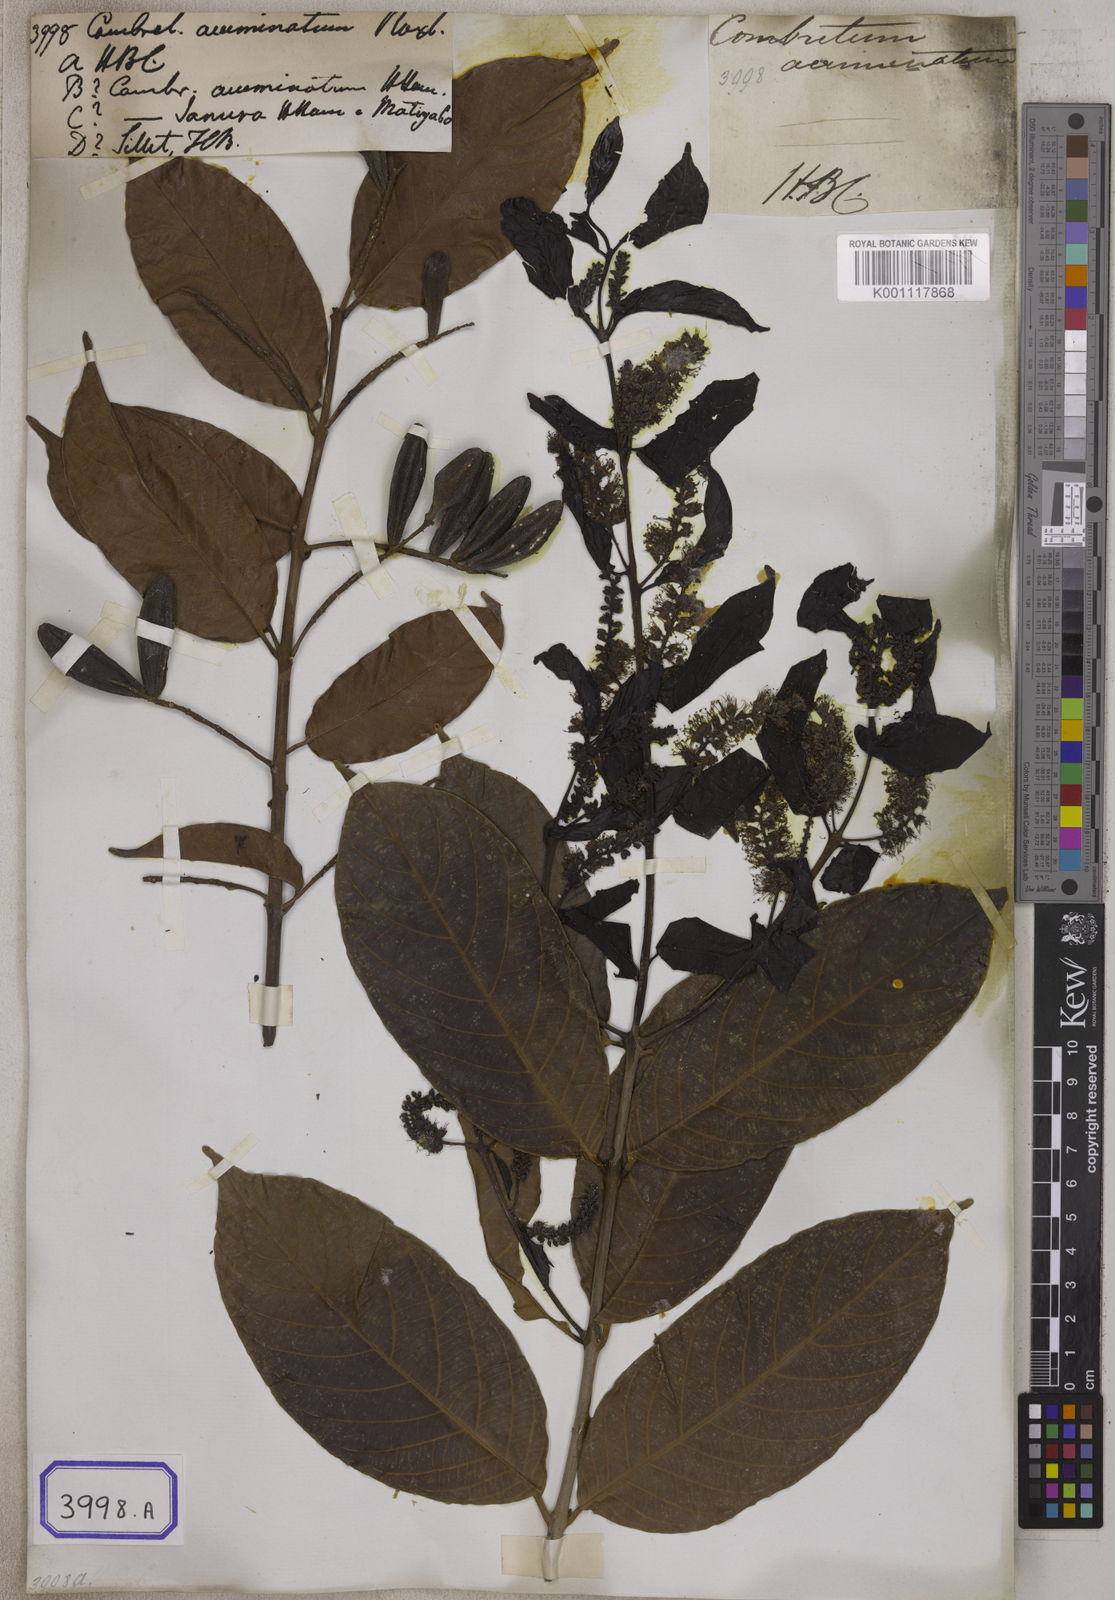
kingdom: Plantae
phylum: Tracheophyta
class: Magnoliopsida
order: Myrtales
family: Combretaceae
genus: Combretum
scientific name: Combretum acuminatum
